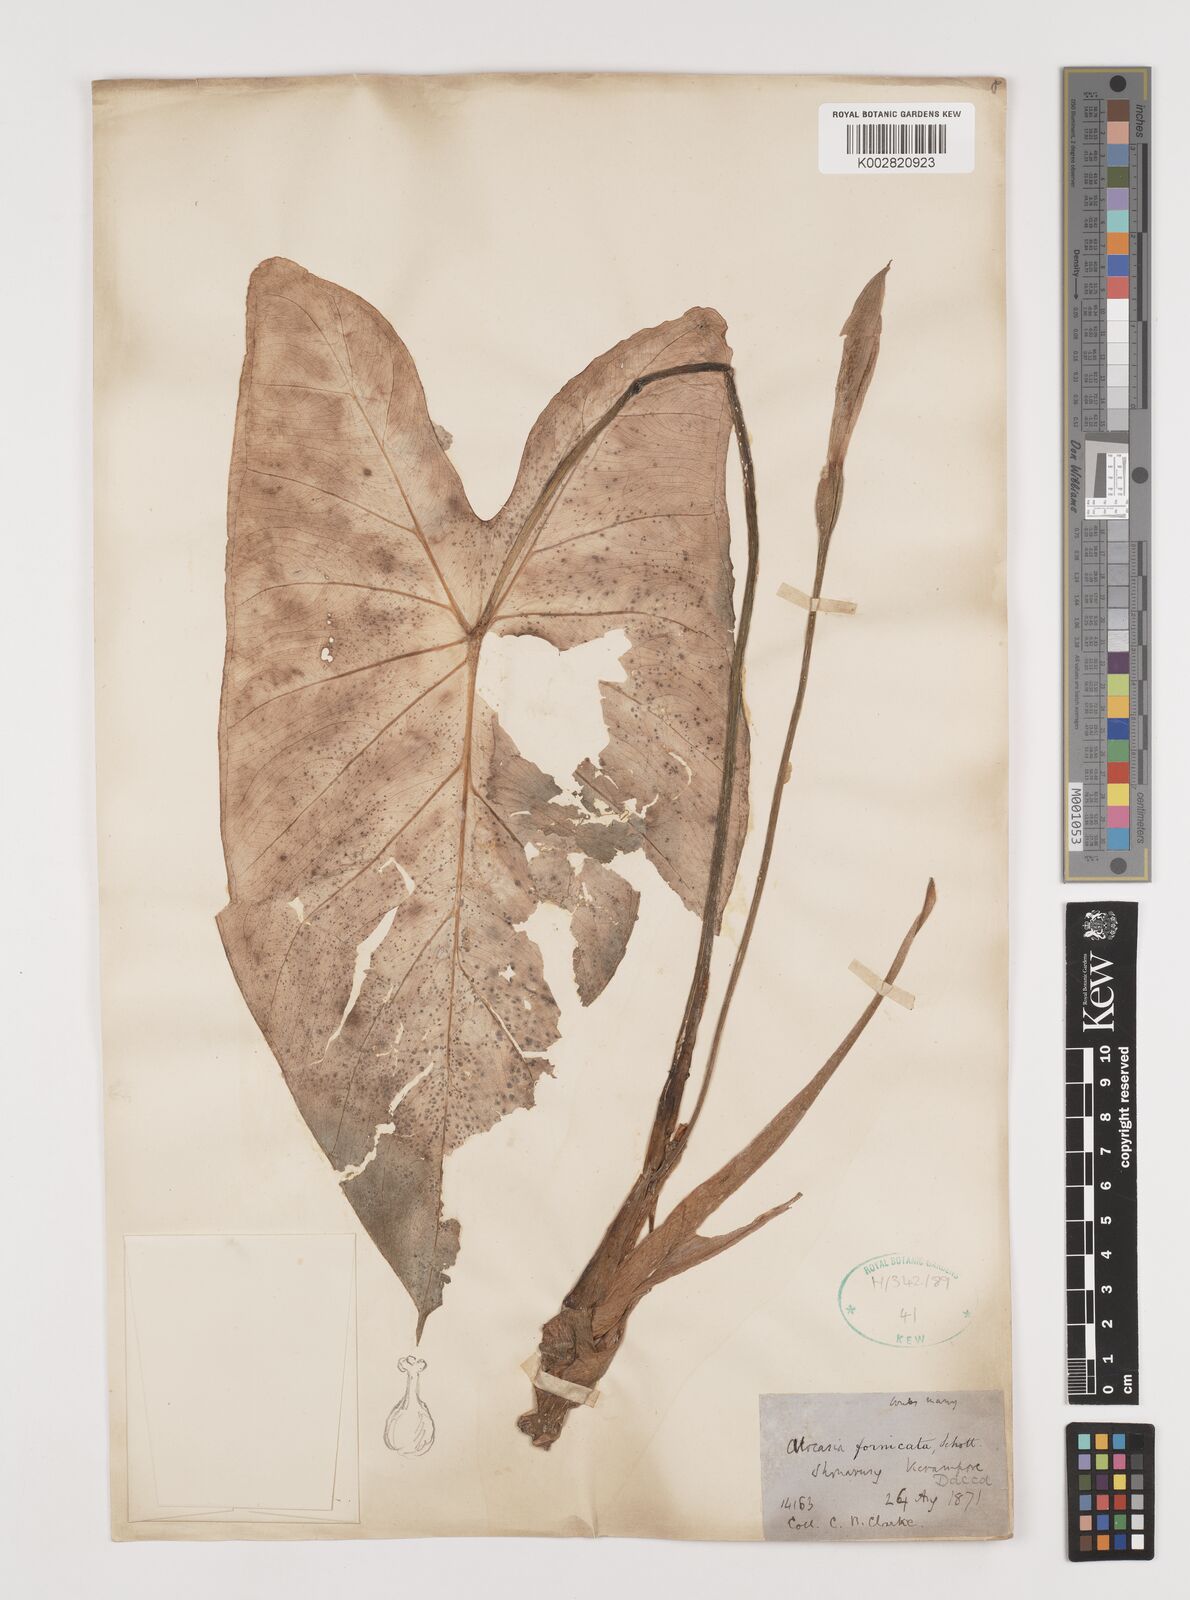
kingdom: Plantae
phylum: Tracheophyta
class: Liliopsida
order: Alismatales
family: Araceae
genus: Alocasia
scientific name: Alocasia fornicata
